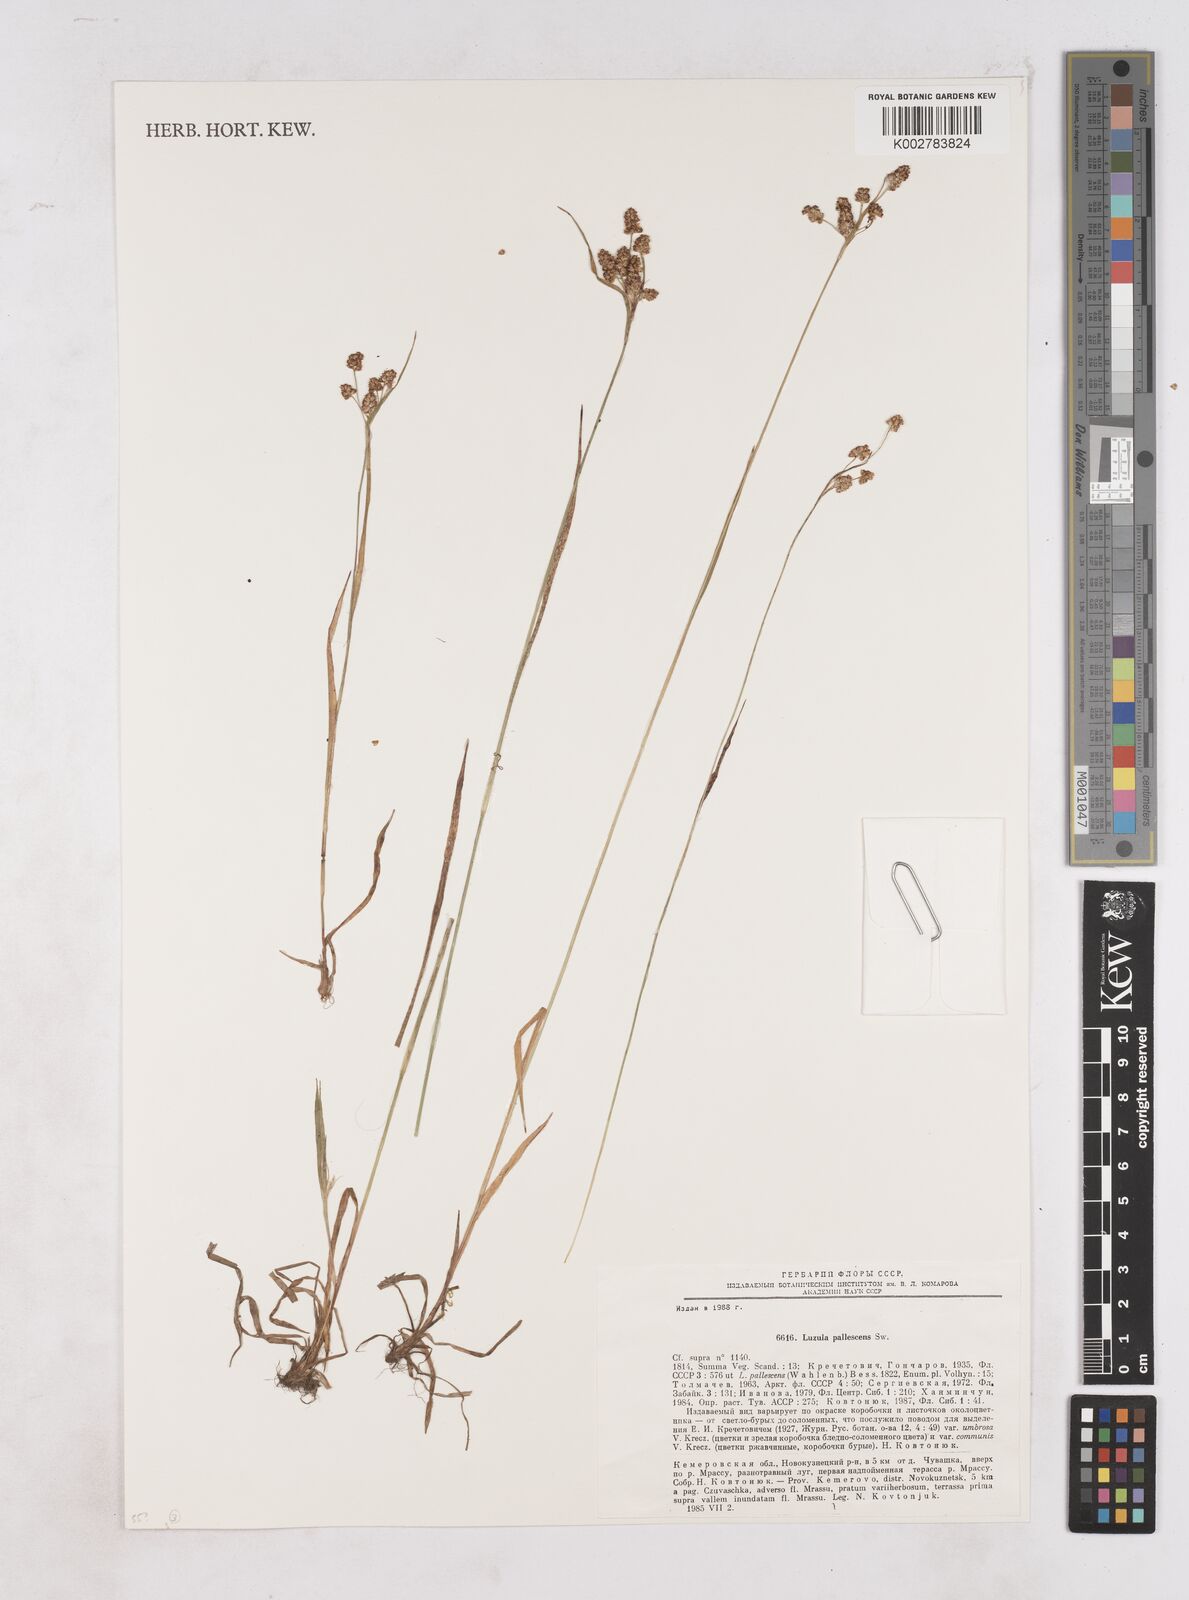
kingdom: Plantae
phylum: Tracheophyta
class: Liliopsida
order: Poales
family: Juncaceae
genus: Luzula
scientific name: Luzula pallescens
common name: Fen wood-rush
